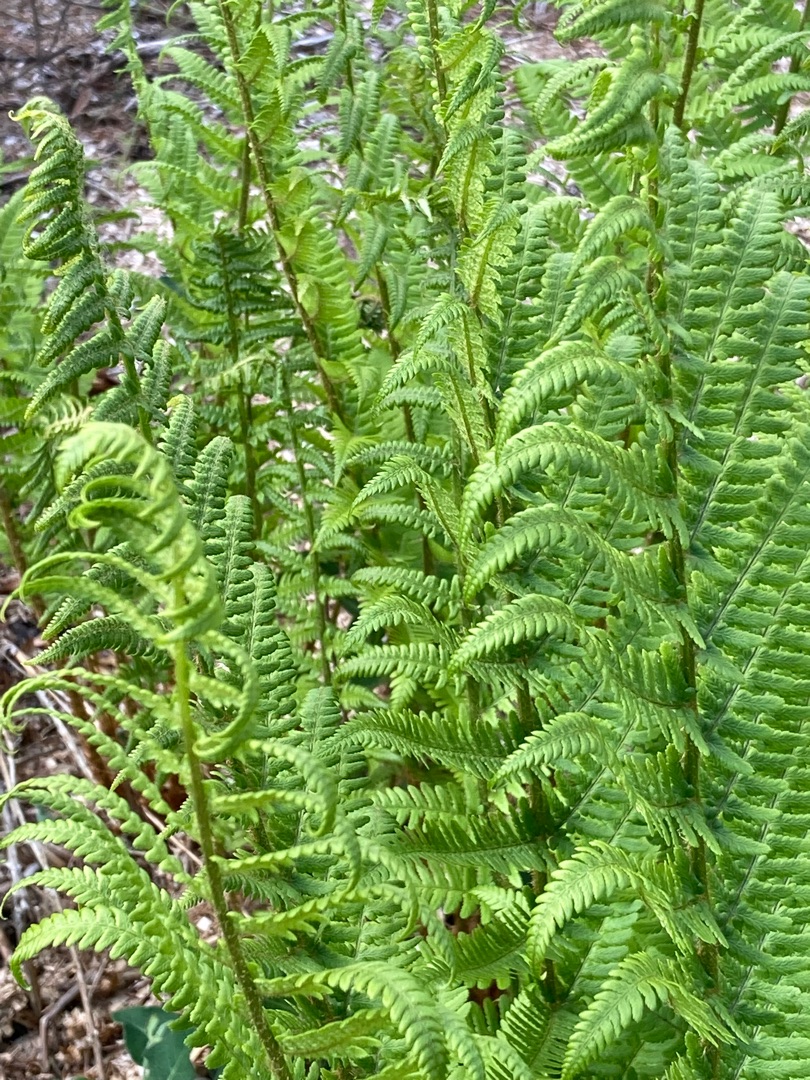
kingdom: Plantae
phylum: Tracheophyta
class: Polypodiopsida
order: Polypodiales
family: Dryopteridaceae
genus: Dryopteris
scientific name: Dryopteris filix-mas
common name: Almindelig mangeløv
